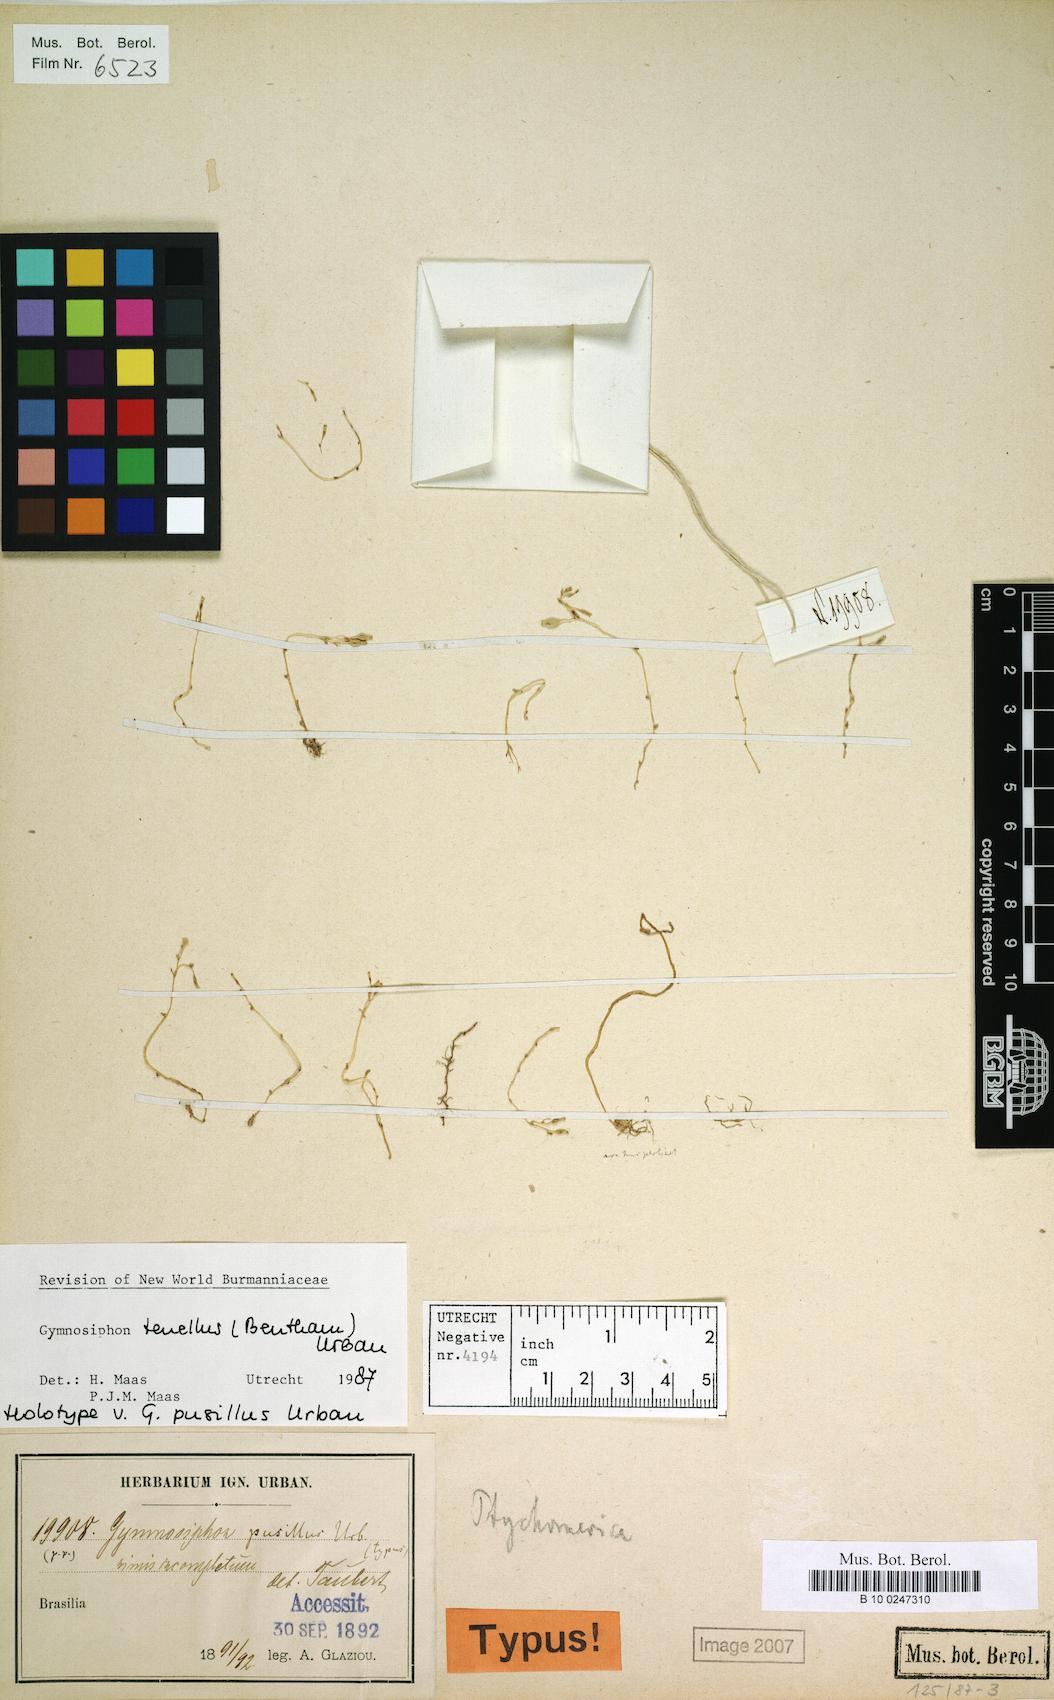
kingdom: Plantae
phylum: Tracheophyta
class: Liliopsida
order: Dioscoreales
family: Burmanniaceae
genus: Gymnosiphon
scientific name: Gymnosiphon tenellus
